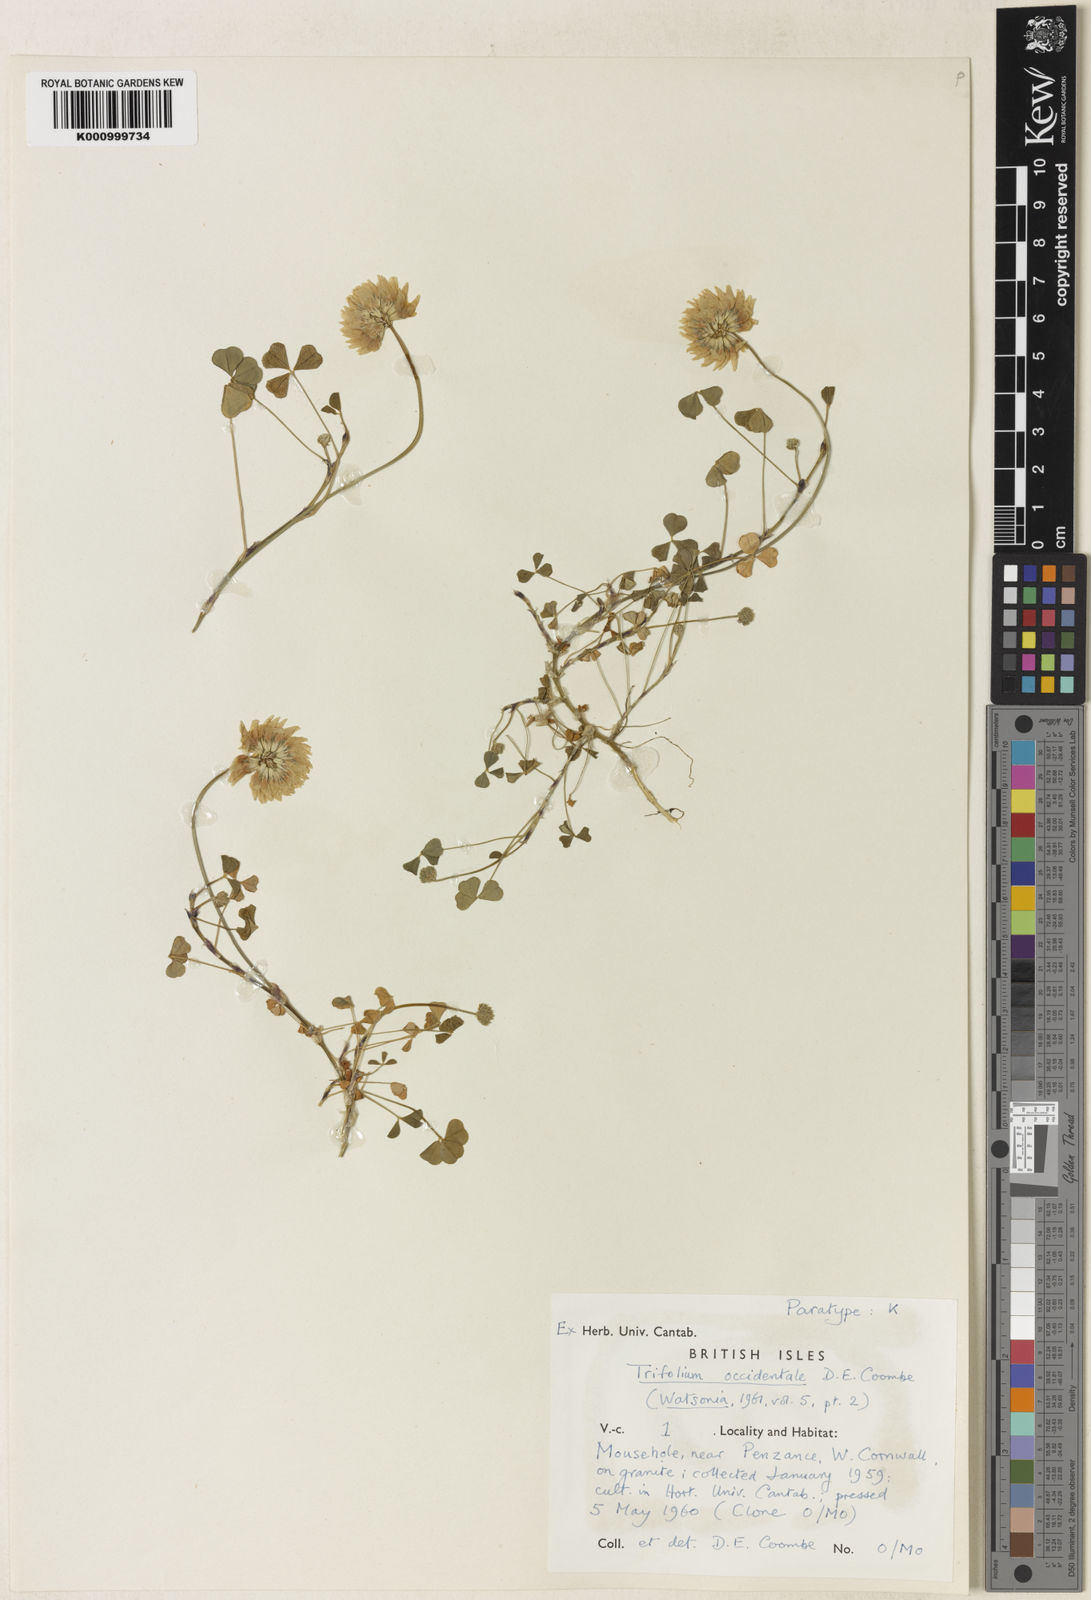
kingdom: Plantae
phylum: Tracheophyta
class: Magnoliopsida
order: Fabales
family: Fabaceae
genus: Trifolium
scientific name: Trifolium occidentale
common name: Western clover
